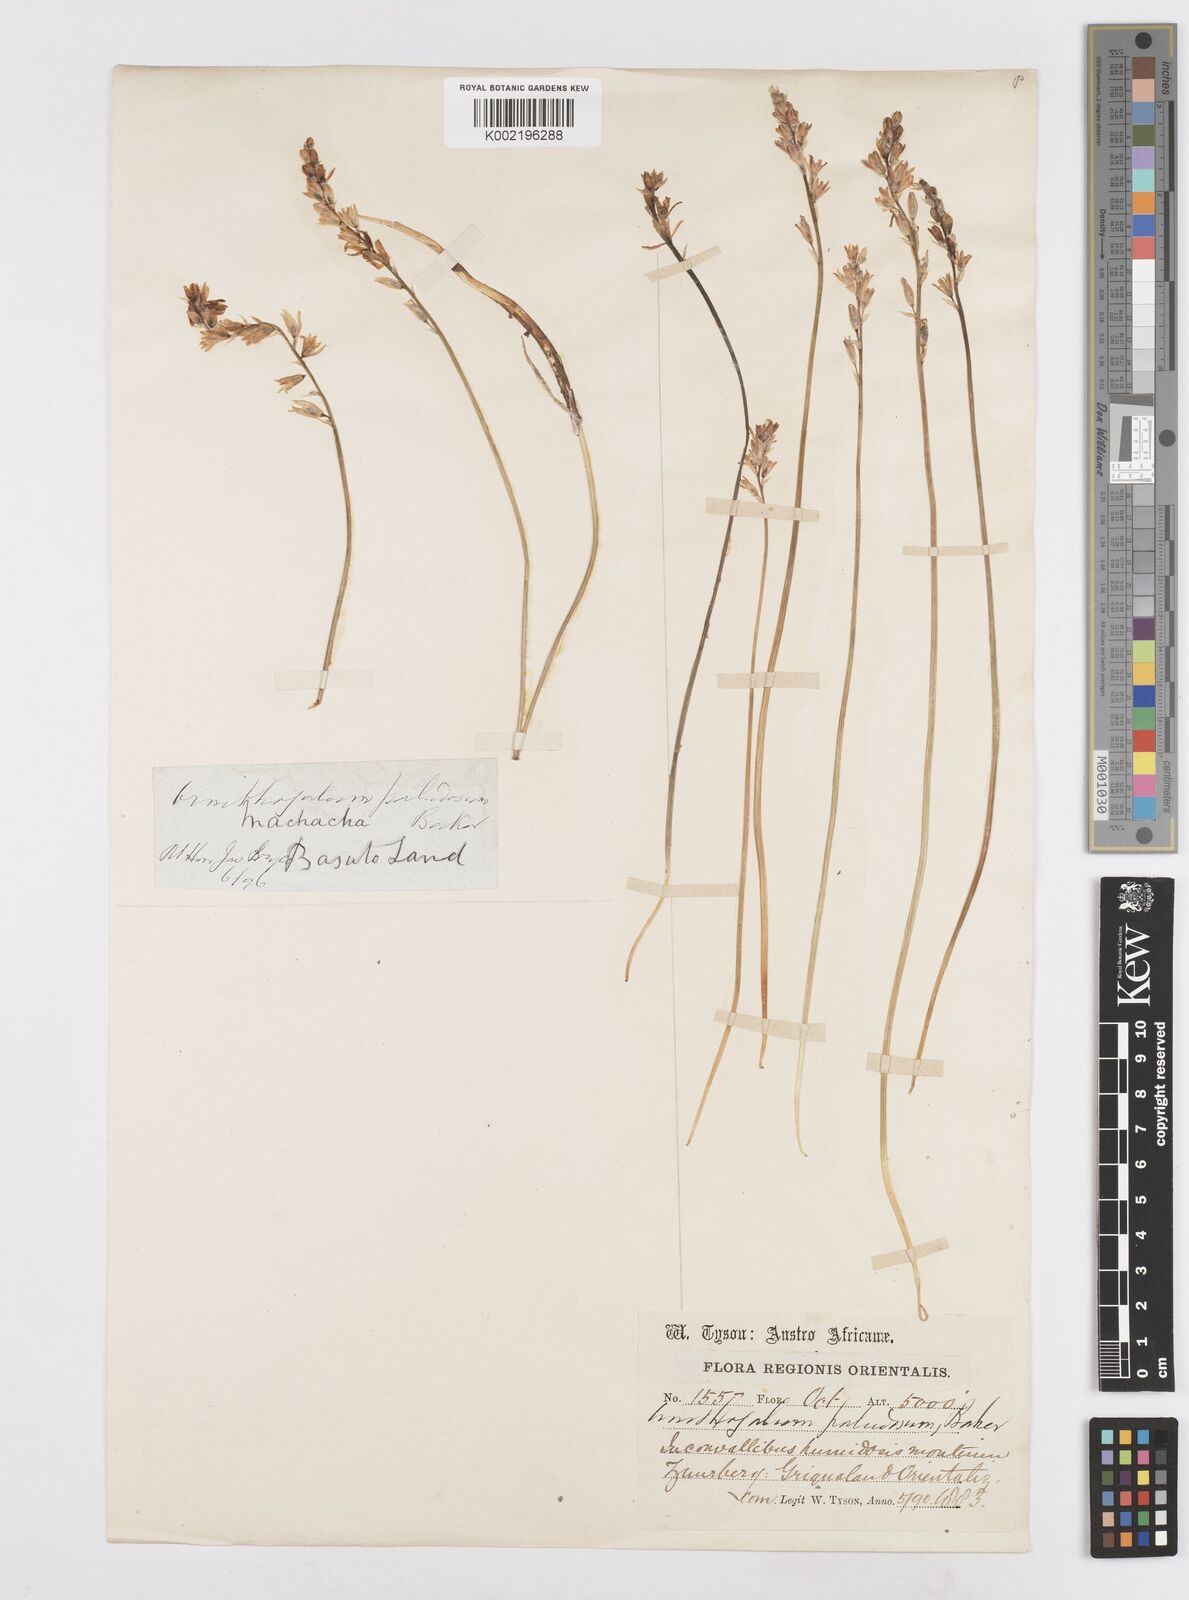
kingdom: Plantae
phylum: Tracheophyta
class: Liliopsida
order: Asparagales
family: Asparagaceae
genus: Ornithogalum
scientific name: Ornithogalum paludosum
